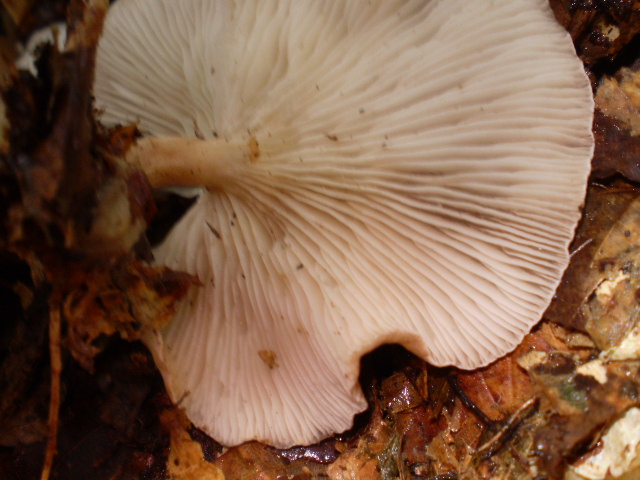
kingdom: Fungi
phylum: Basidiomycota
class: Agaricomycetes
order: Agaricales
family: Tricholomataceae
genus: Infundibulicybe
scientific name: Infundibulicybe gibba
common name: almindelig tragthat
